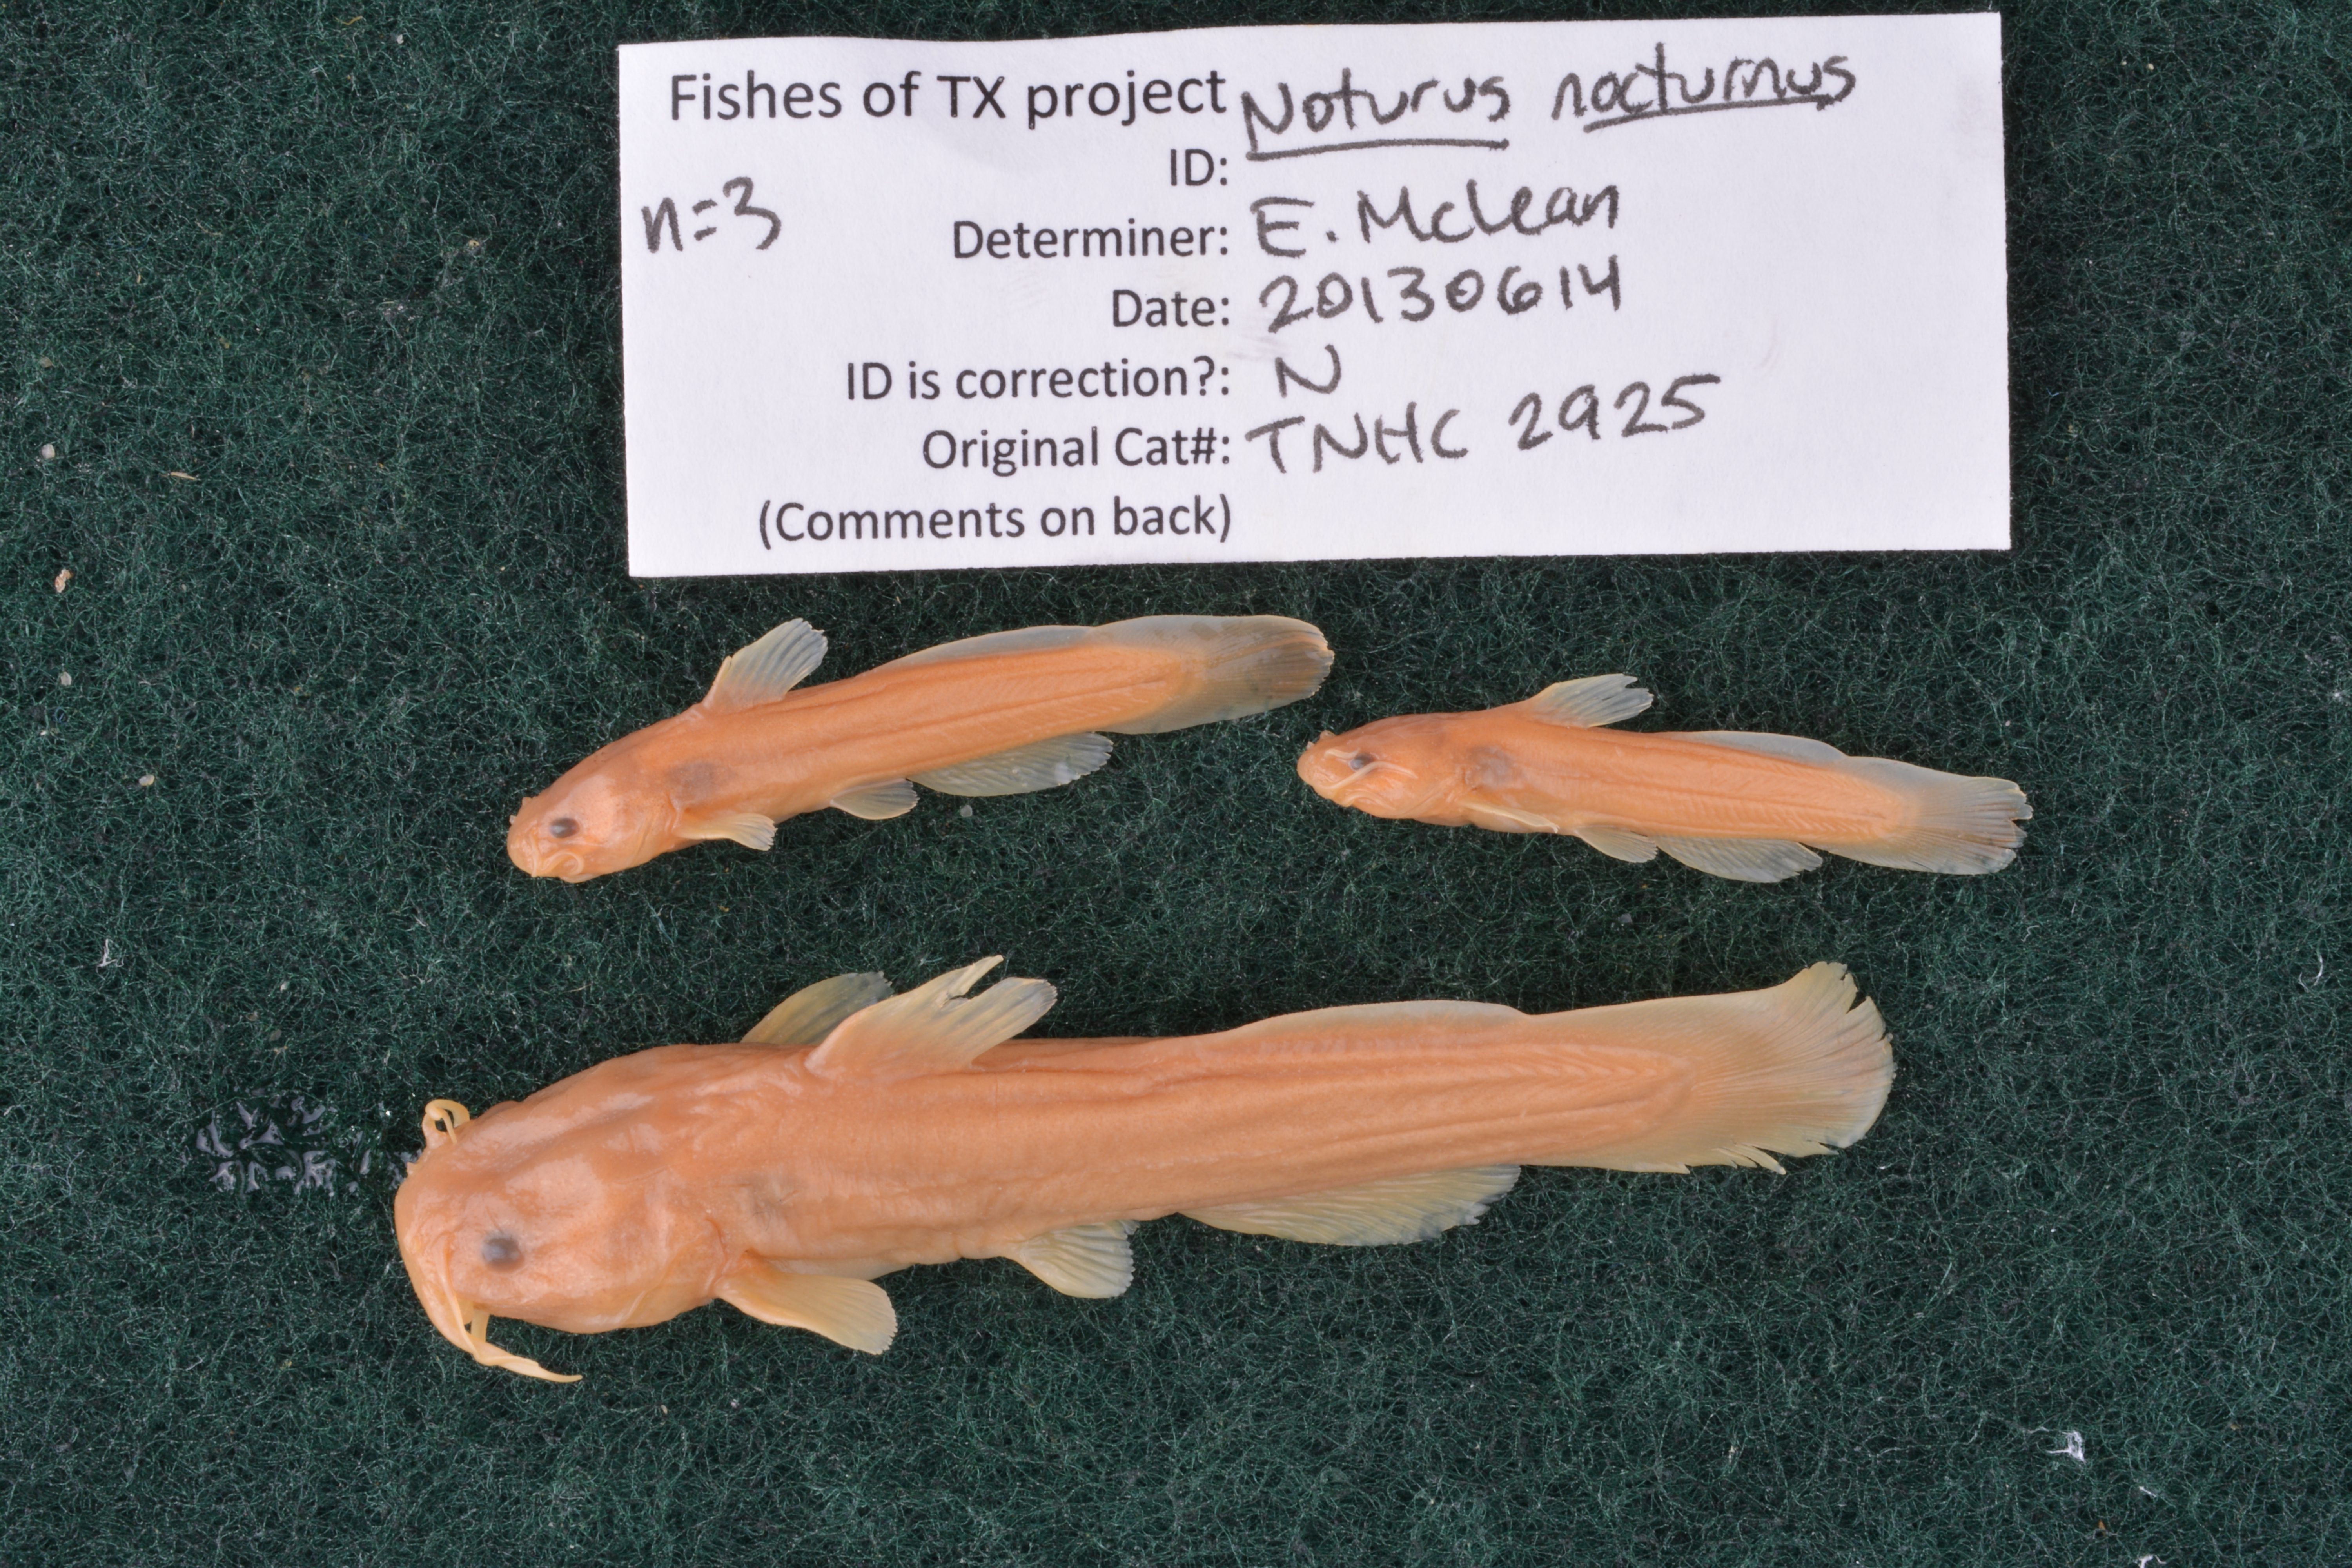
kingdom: Animalia
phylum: Chordata
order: Siluriformes
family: Ictaluridae
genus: Noturus
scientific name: Noturus nocturnus
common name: Freckled madtom
